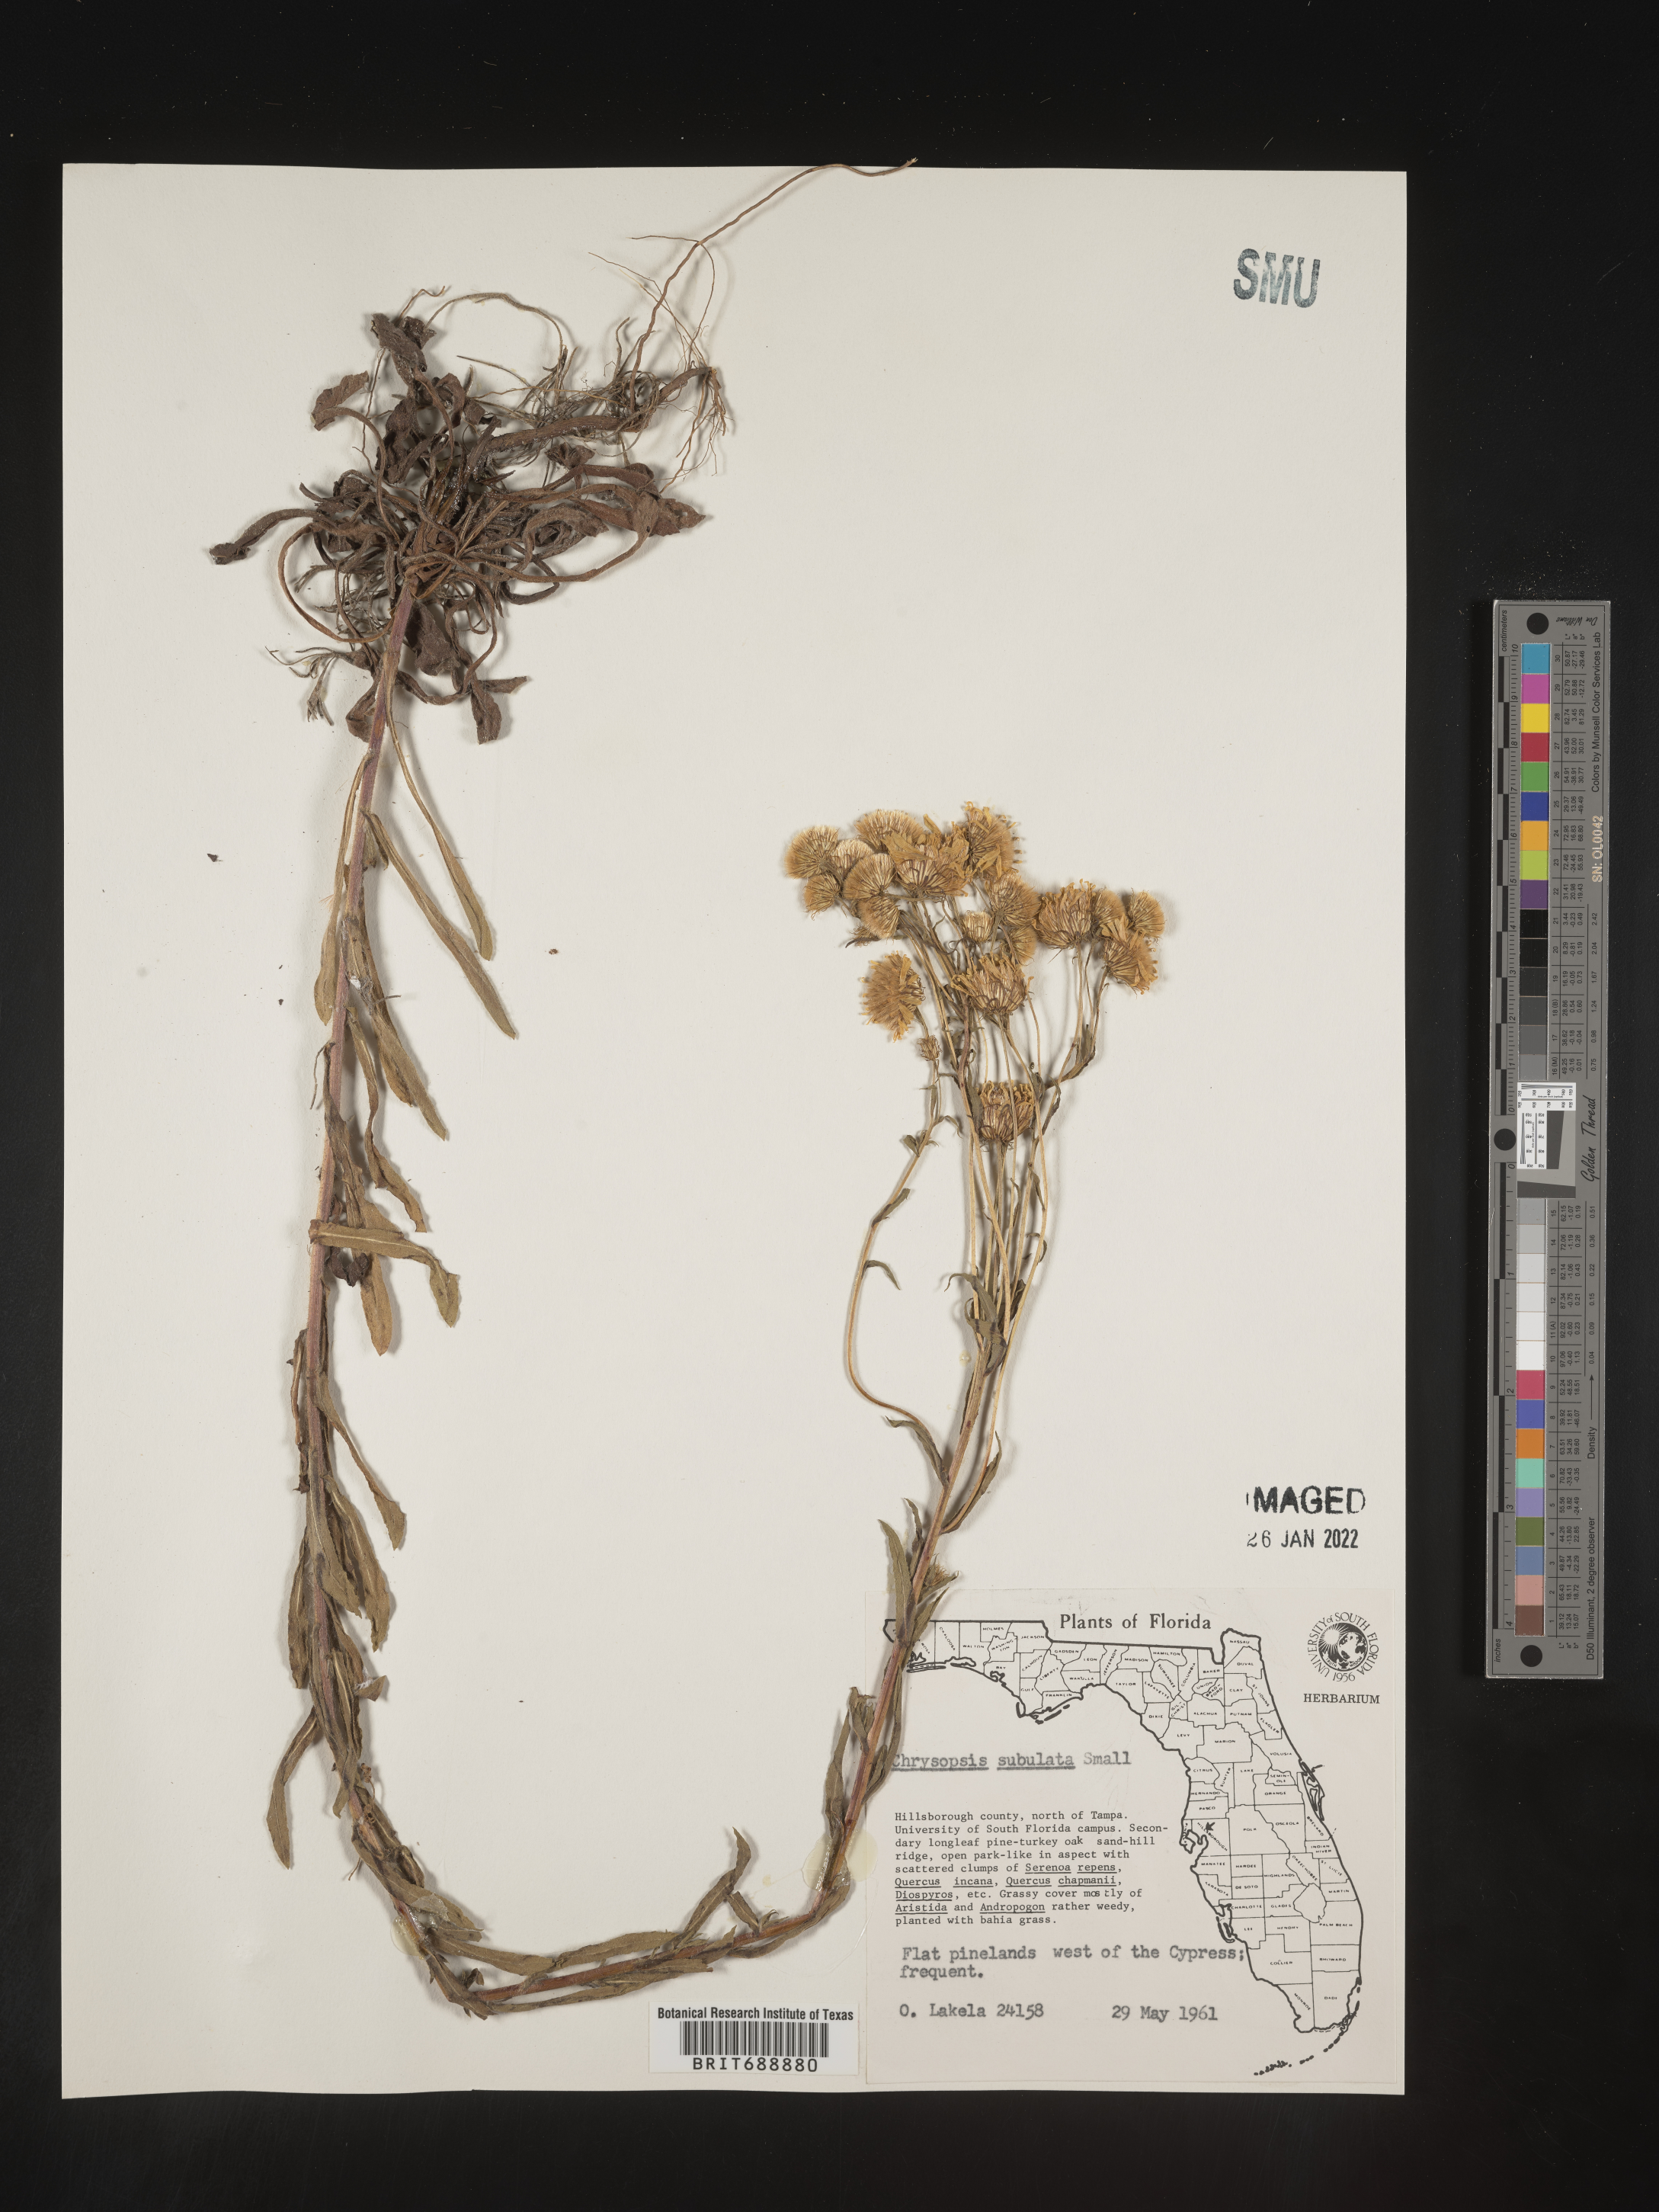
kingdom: Plantae
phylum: Tracheophyta
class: Magnoliopsida
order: Asterales
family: Asteraceae
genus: Chrysopsis
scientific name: Chrysopsis subulata
